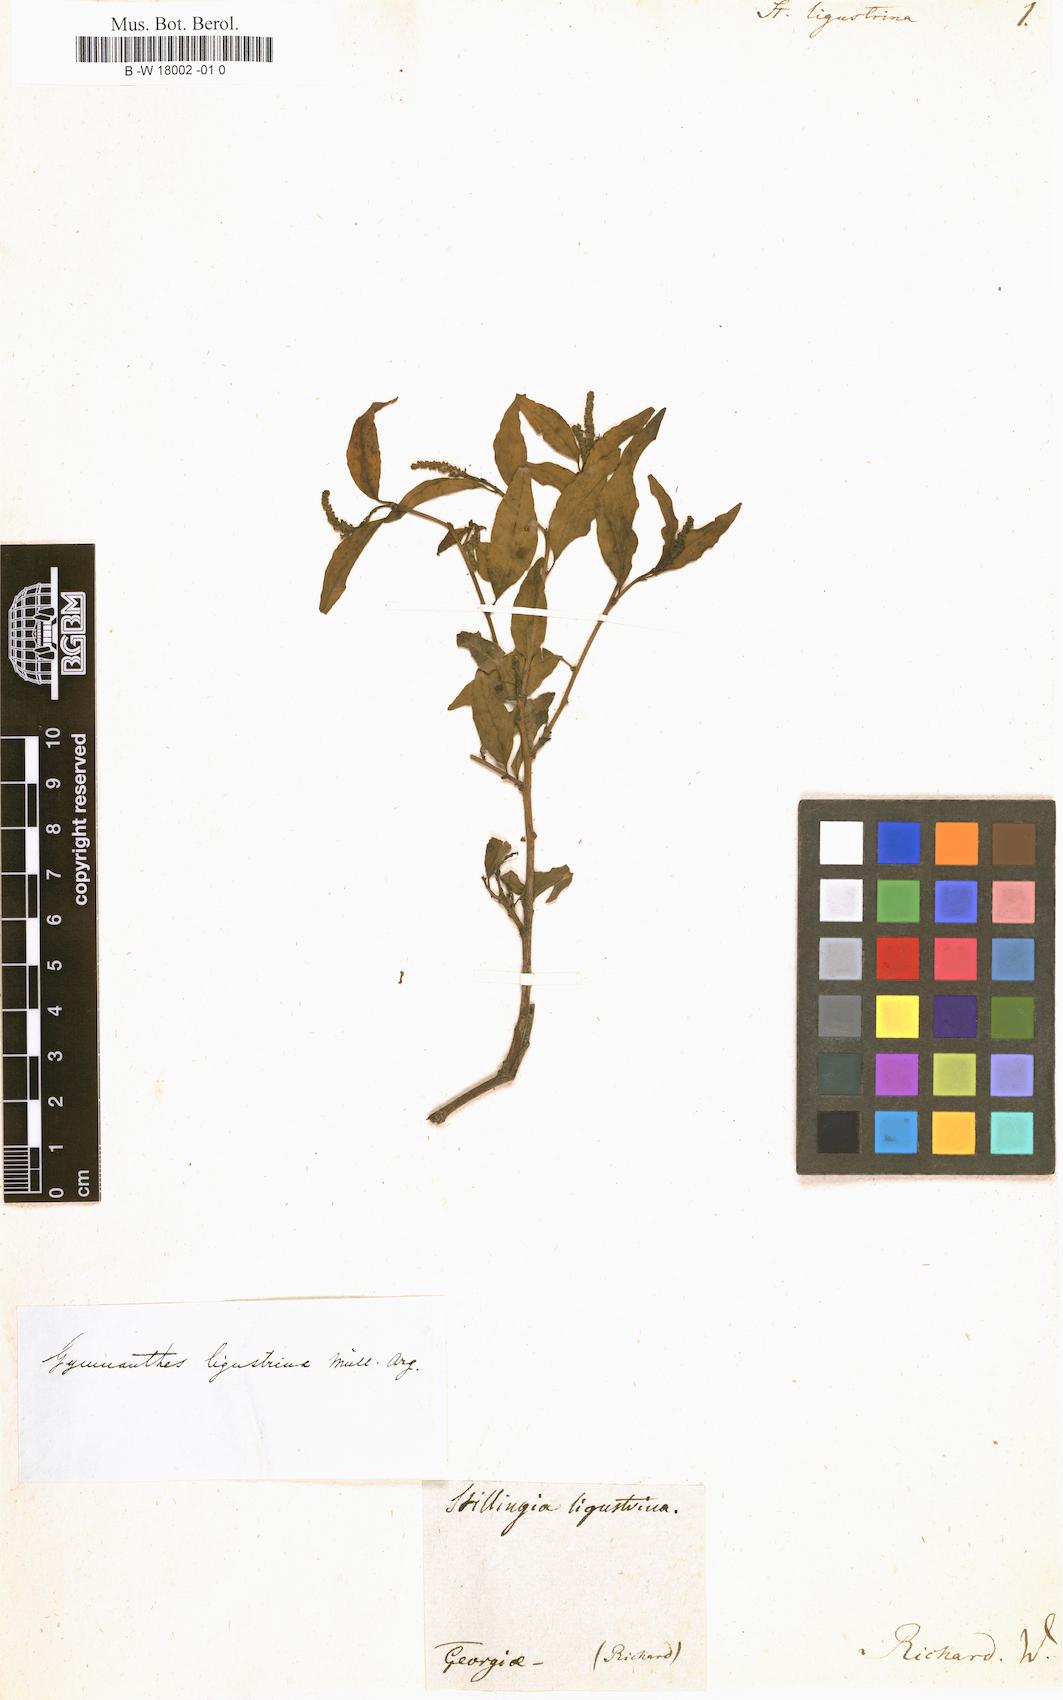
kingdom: Plantae
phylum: Tracheophyta
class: Magnoliopsida
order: Malpighiales
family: Euphorbiaceae
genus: Ditrysinia
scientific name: Ditrysinia fruticosa
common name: Gulf sebastian-bush
